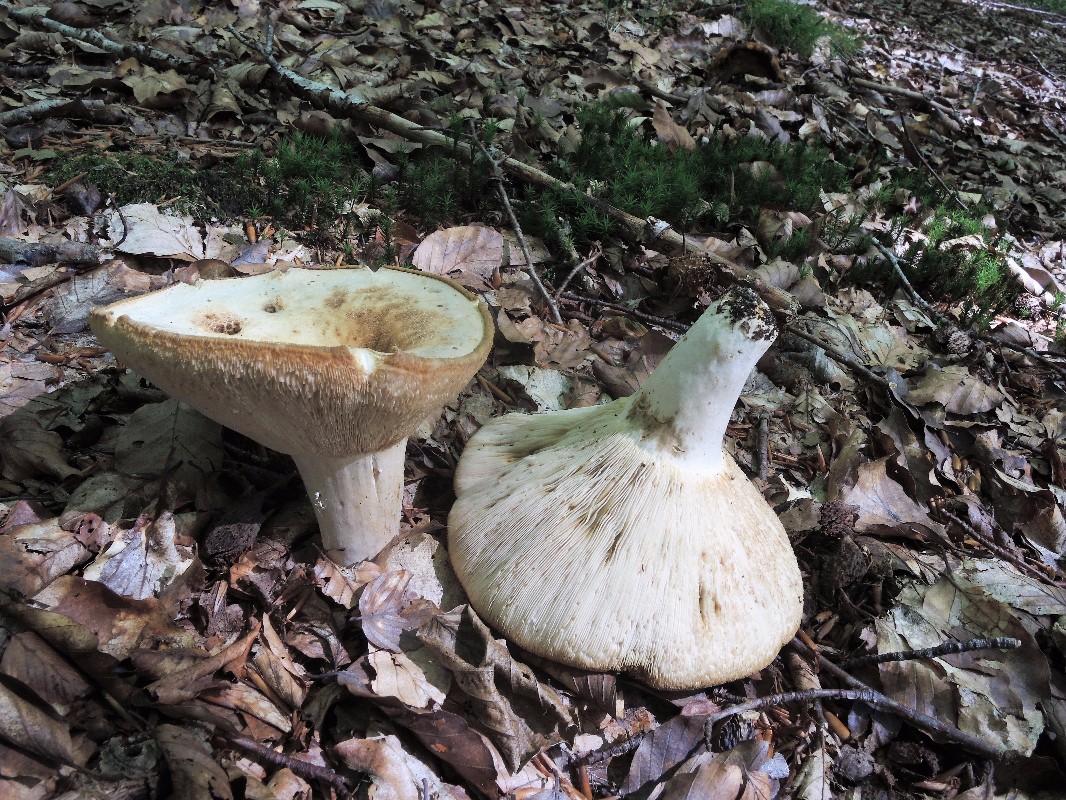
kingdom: Fungi
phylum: Basidiomycota
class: Agaricomycetes
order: Russulales
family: Russulaceae
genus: Lactifluus
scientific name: Lactifluus piperatus
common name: peber-mælkehat
